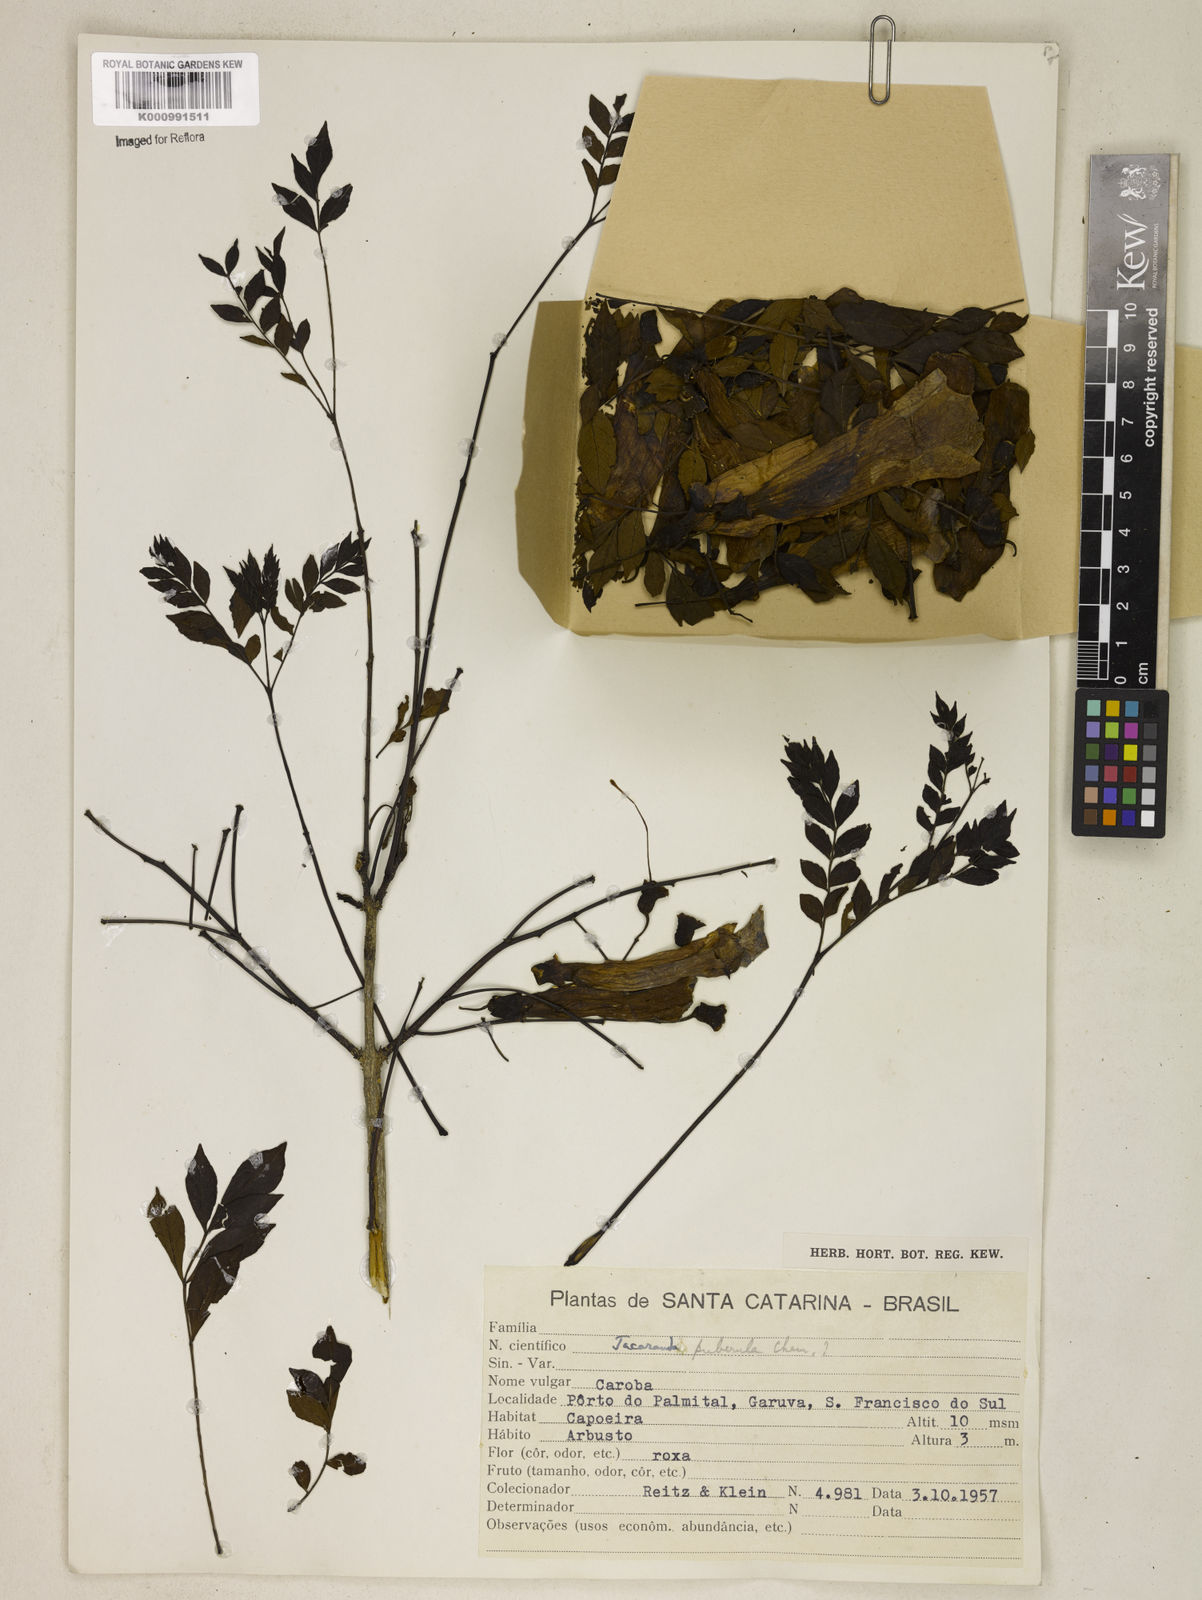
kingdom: Plantae
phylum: Tracheophyta
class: Magnoliopsida
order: Lamiales
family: Bignoniaceae
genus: Jacaranda
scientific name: Jacaranda puberula
